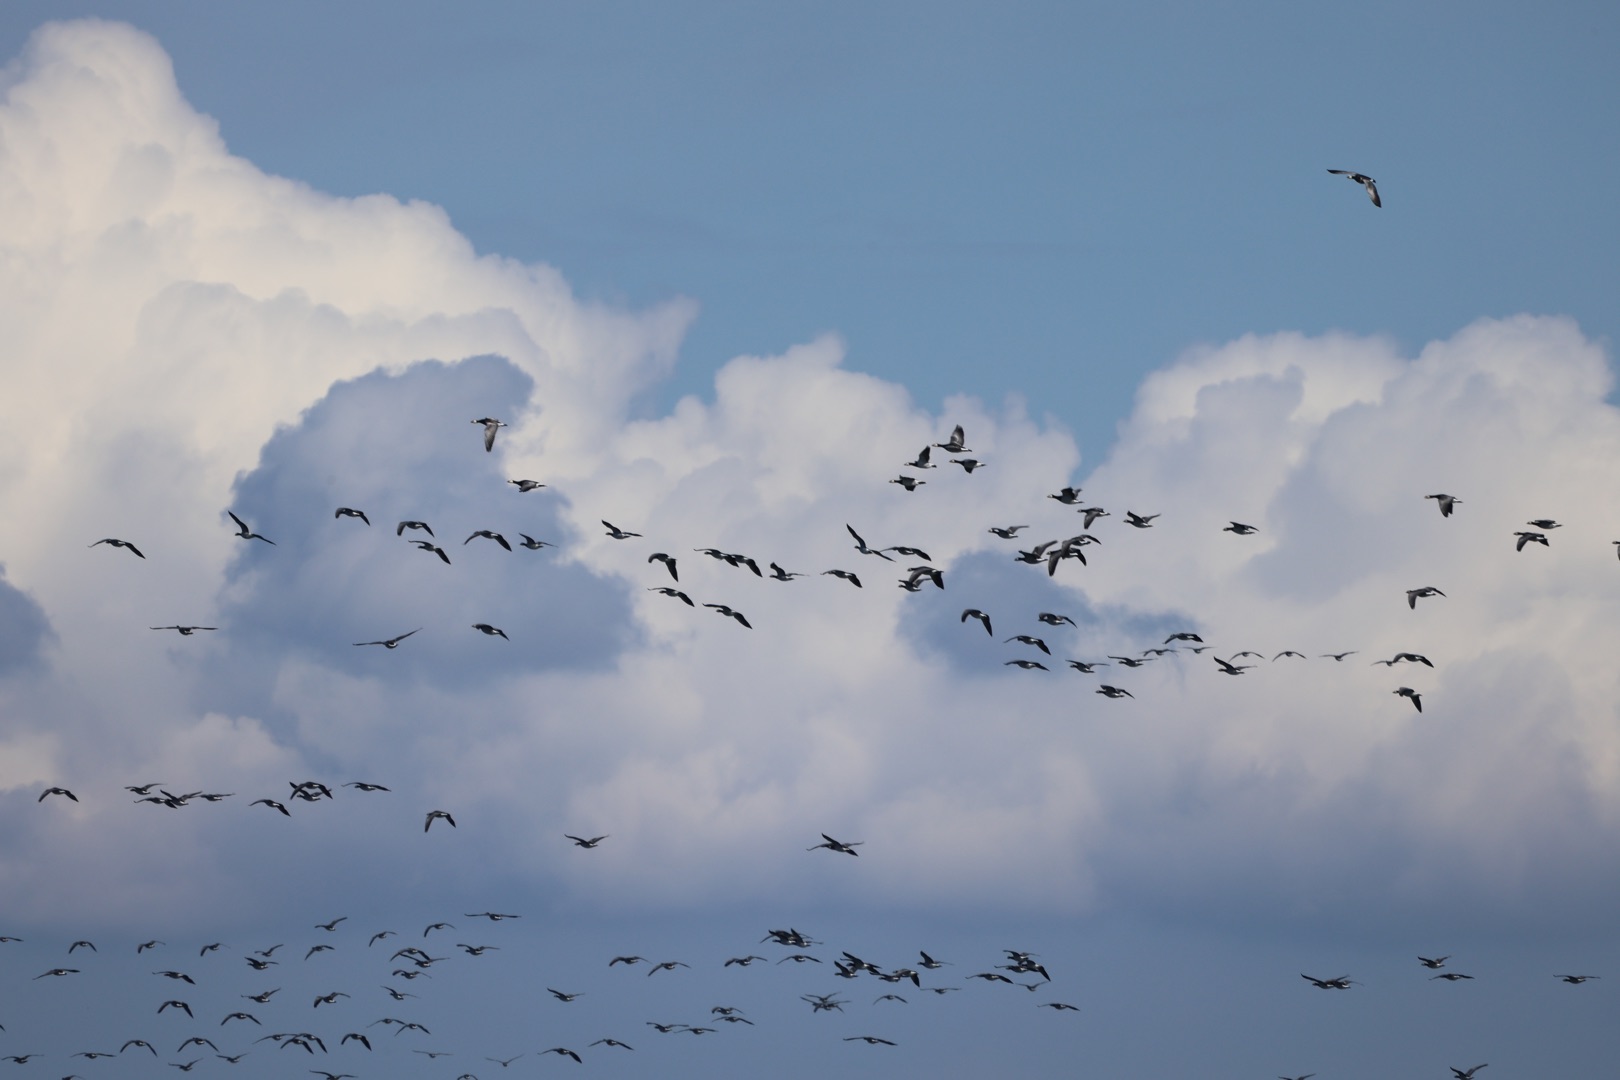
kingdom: Animalia
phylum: Chordata
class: Aves
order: Anseriformes
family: Anatidae
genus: Branta
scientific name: Branta leucopsis
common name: Bramgås
